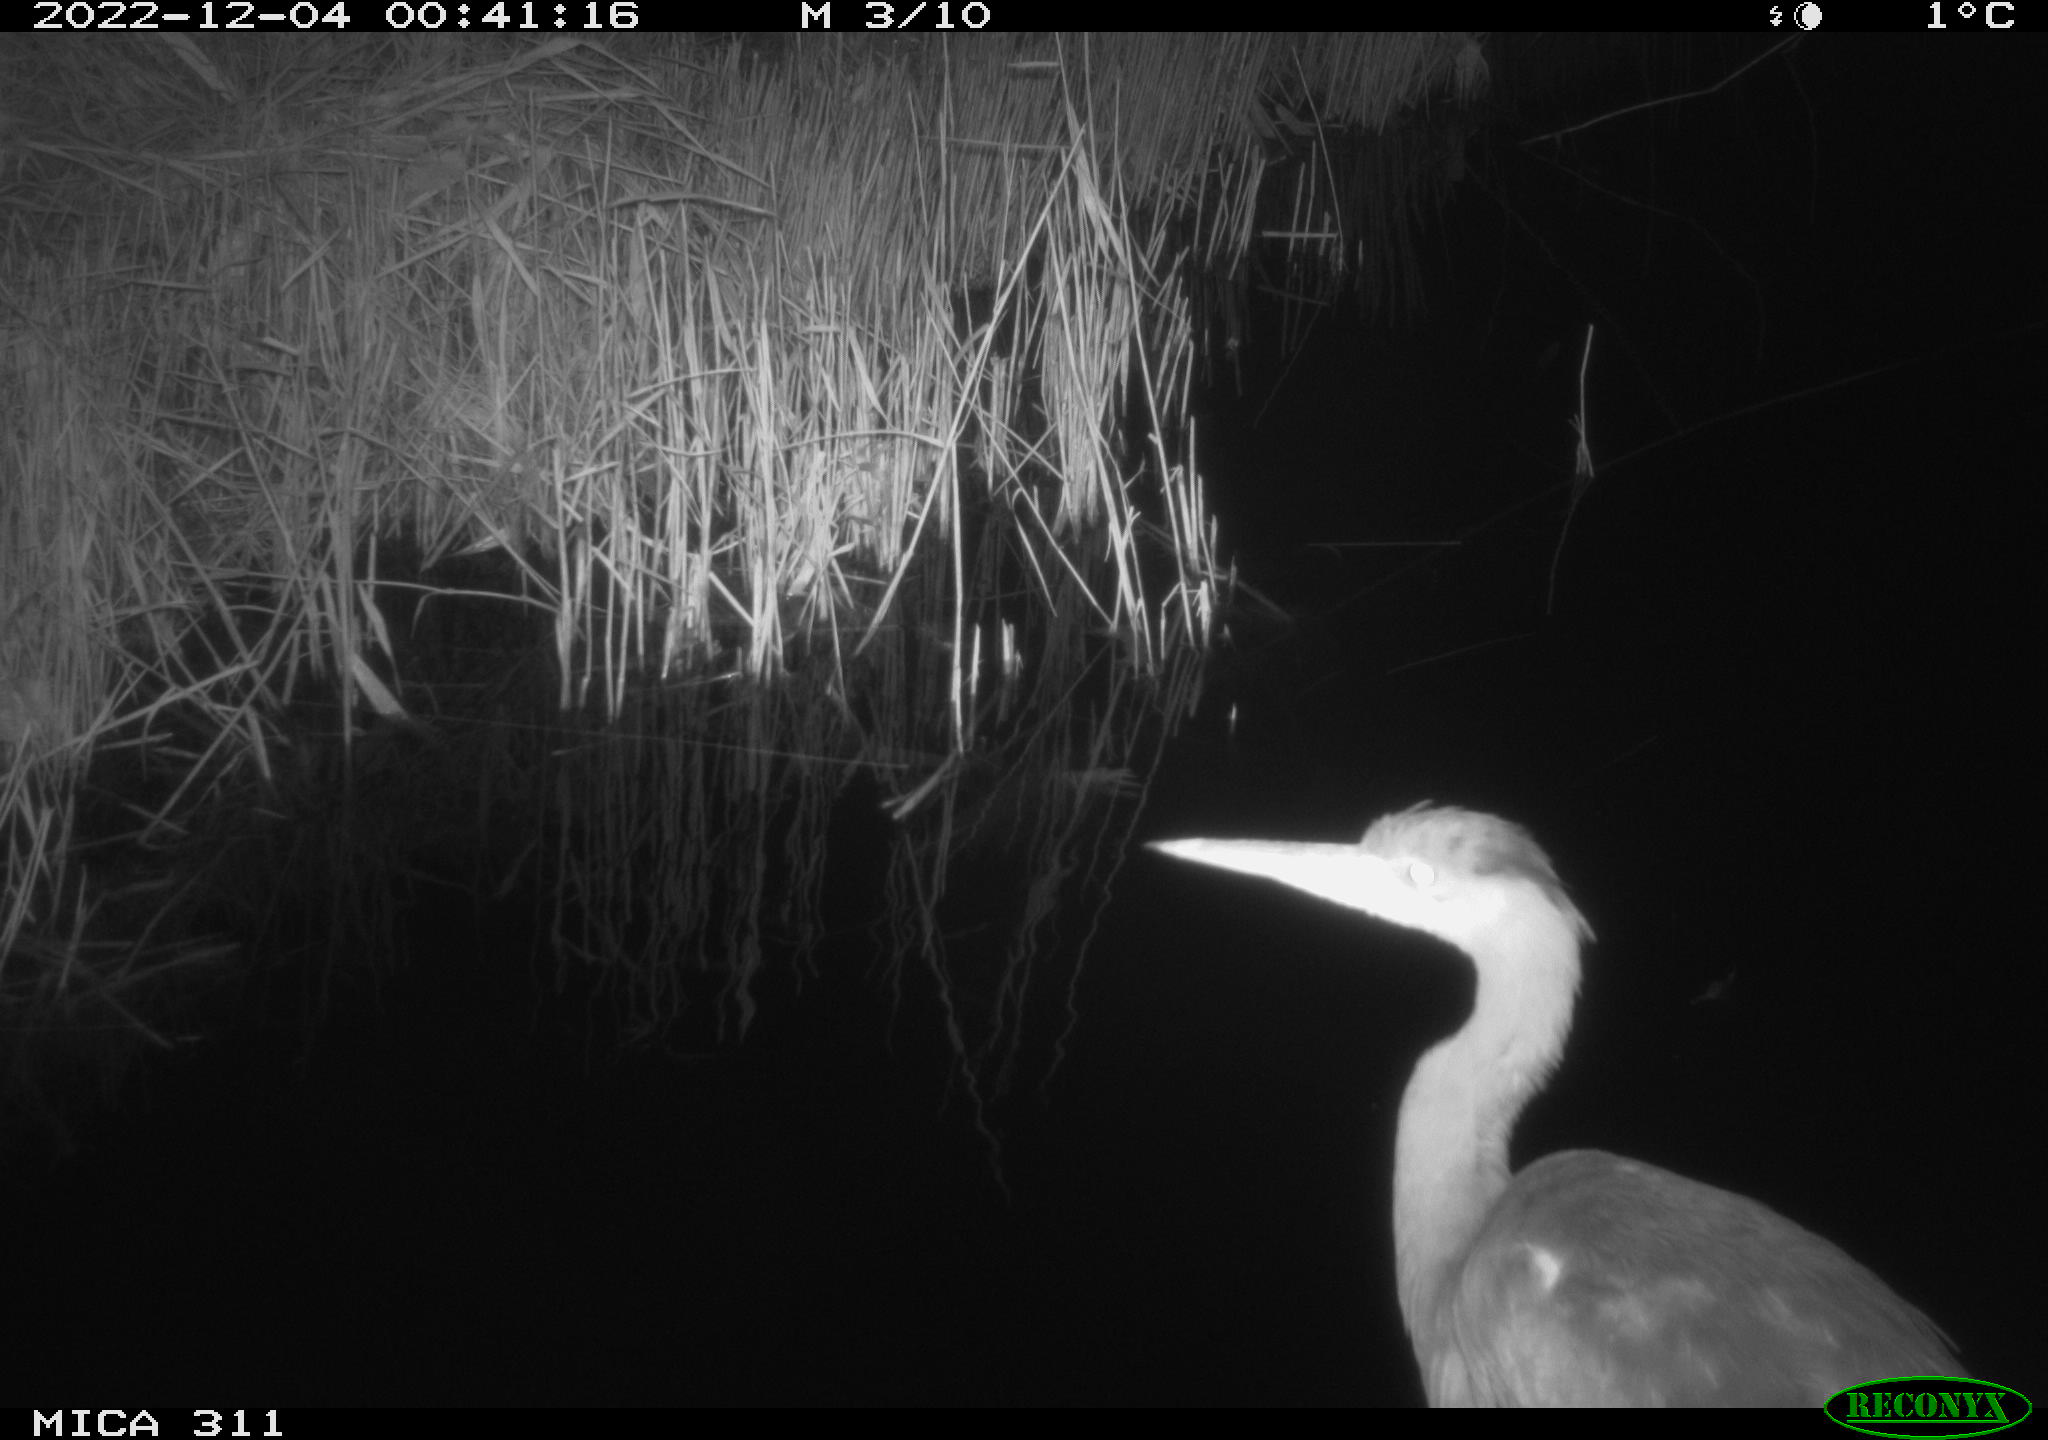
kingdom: Animalia
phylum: Chordata
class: Aves
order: Pelecaniformes
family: Ardeidae
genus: Ardea
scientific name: Ardea cinerea
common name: Grey heron
